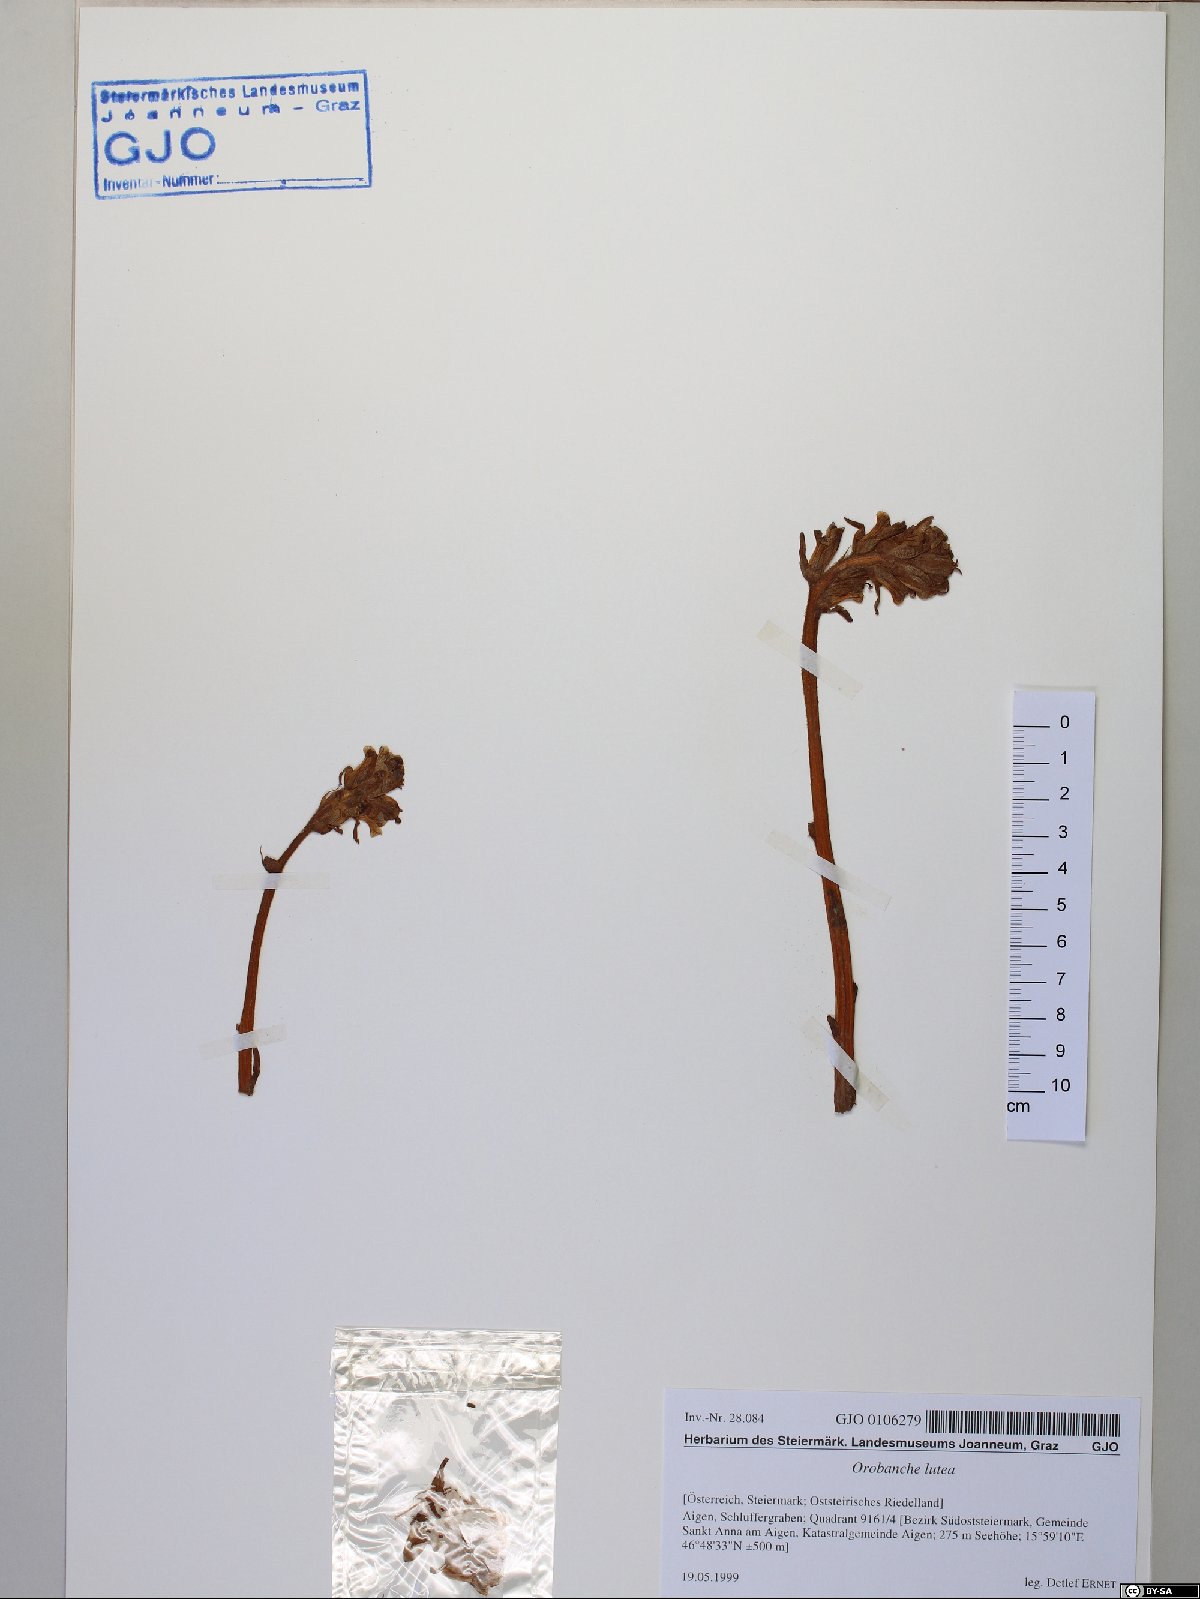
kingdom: Plantae
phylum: Tracheophyta
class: Magnoliopsida
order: Lamiales
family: Orobanchaceae
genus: Orobanche
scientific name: Orobanche lutea
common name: Yellow broomrape
